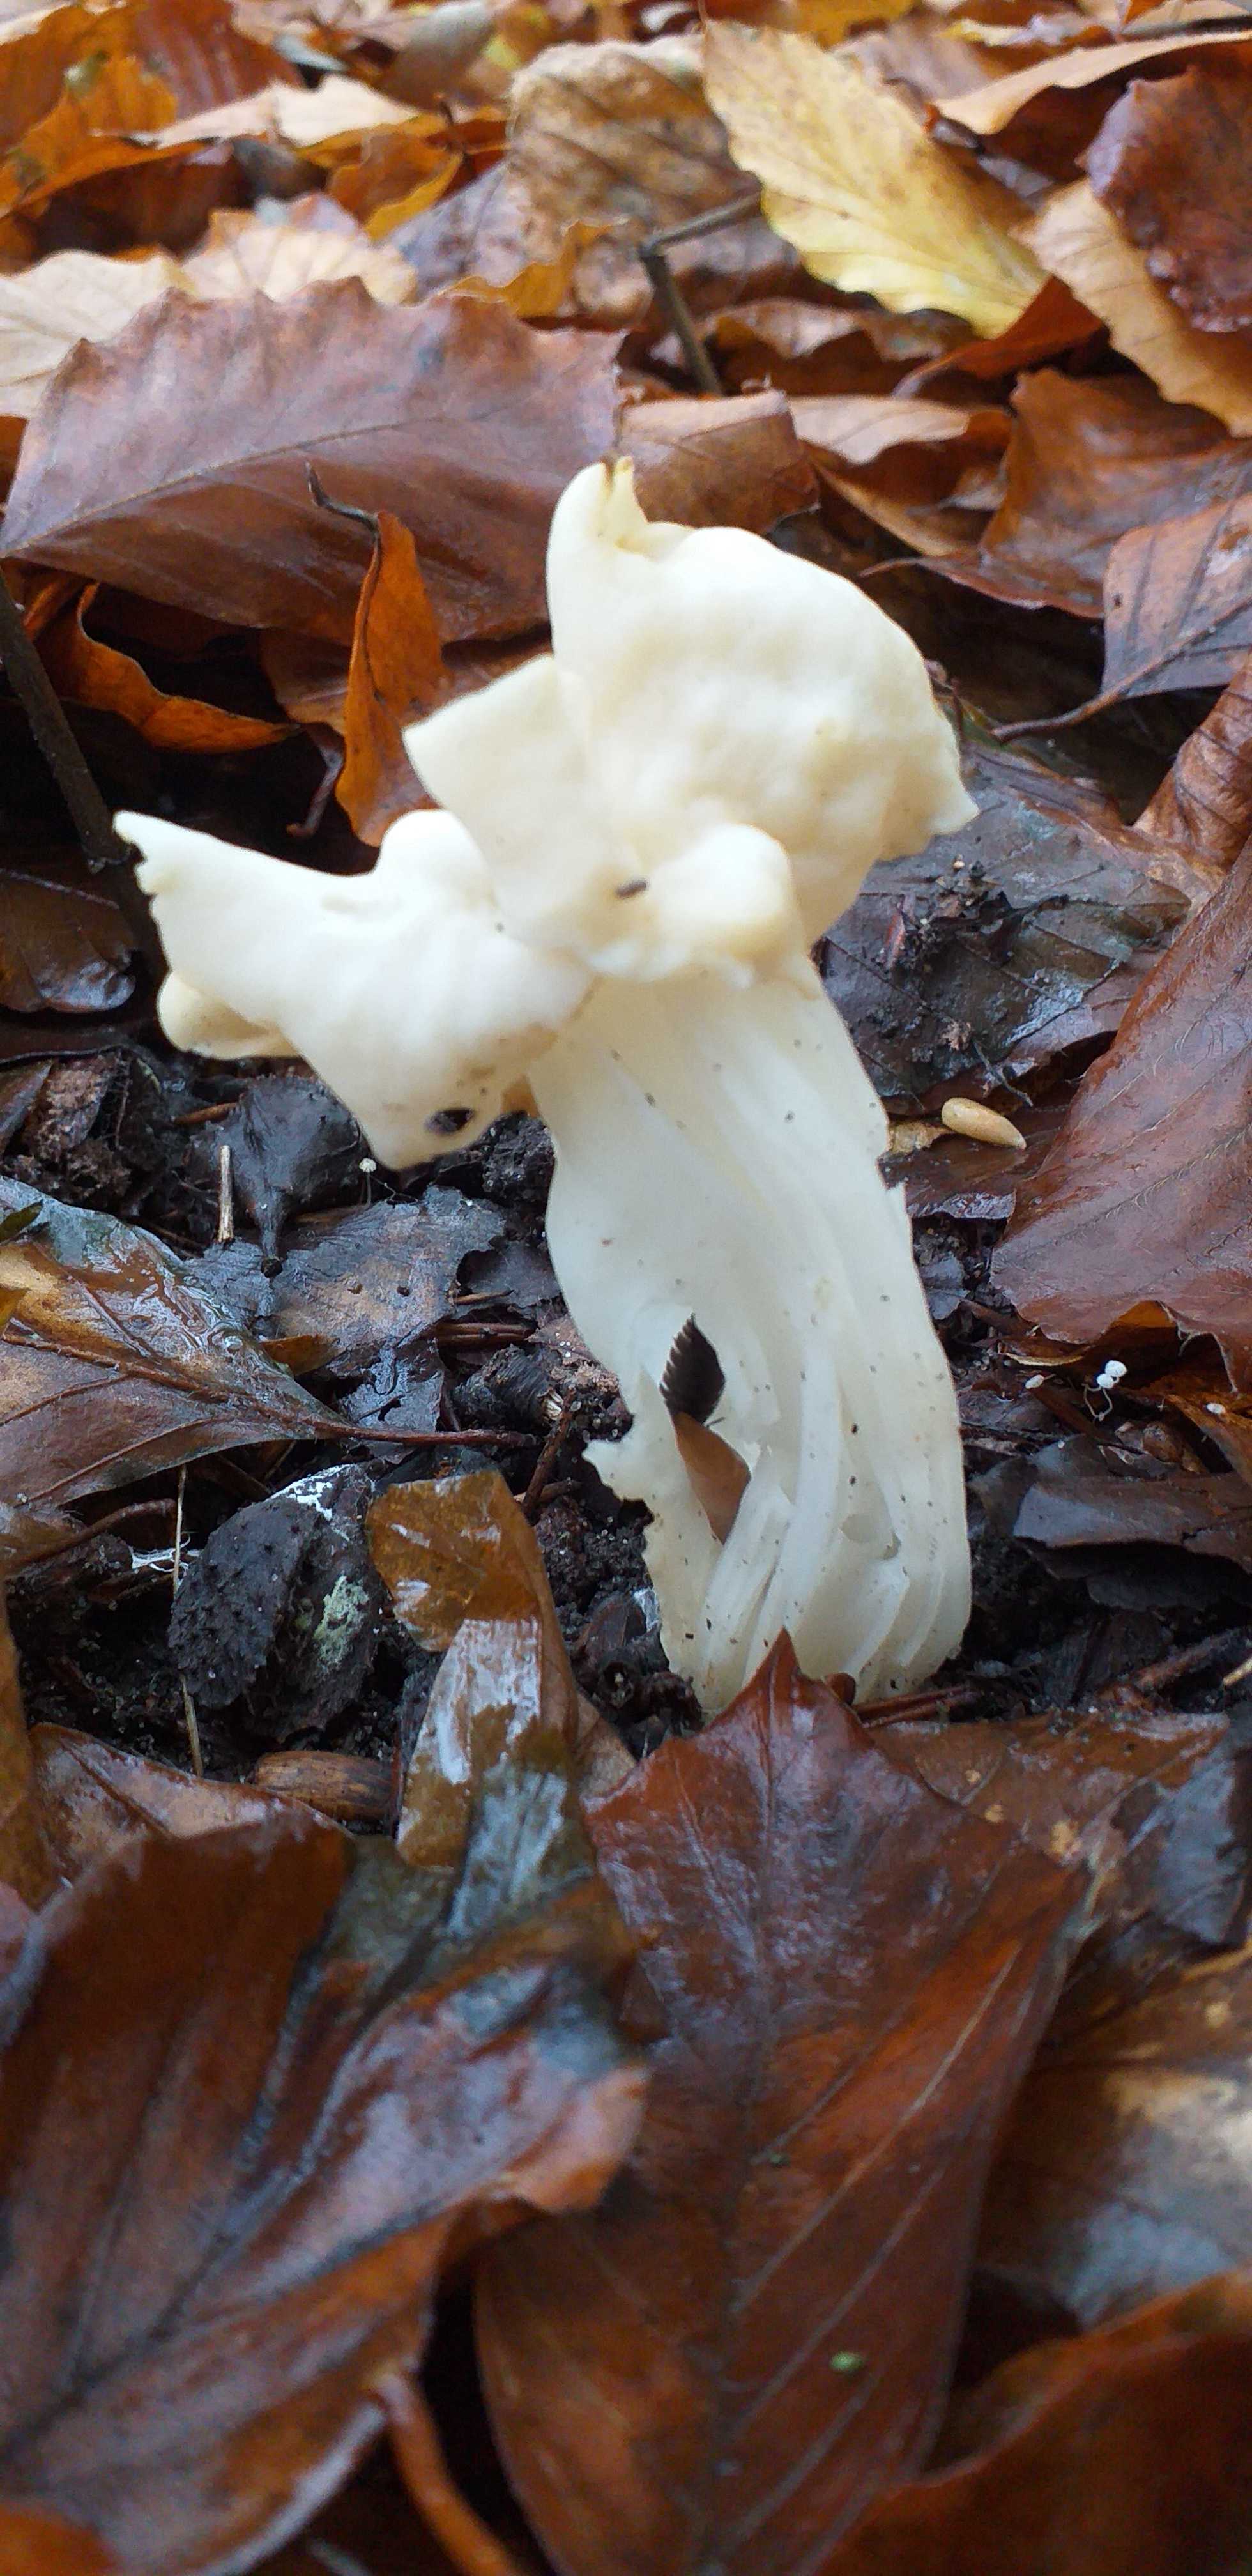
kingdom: Fungi
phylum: Ascomycota
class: Pezizomycetes
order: Pezizales
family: Helvellaceae
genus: Helvella
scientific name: Helvella crispa
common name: kruset foldhat
